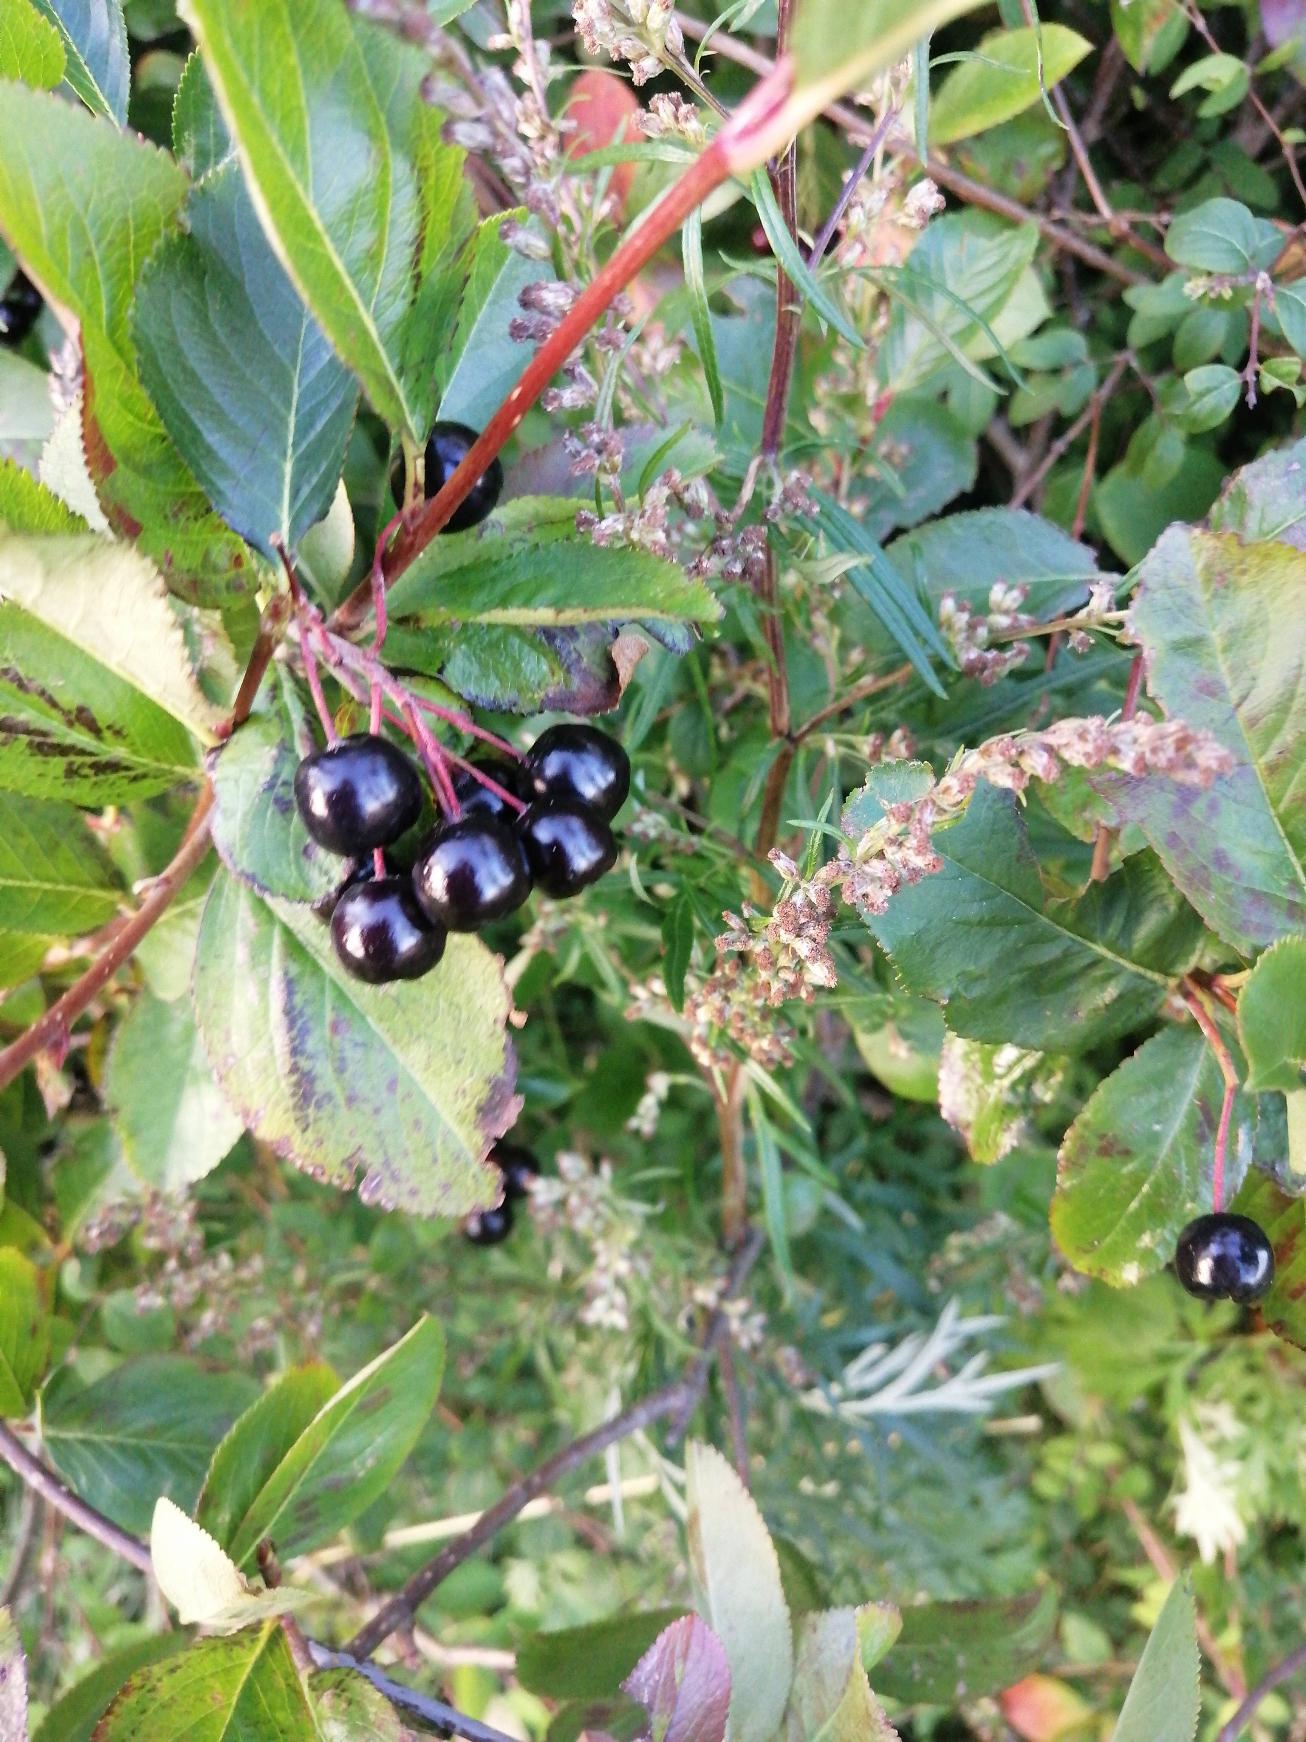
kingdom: Plantae
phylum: Tracheophyta
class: Magnoliopsida
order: Rosales
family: Rosaceae
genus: Aronia
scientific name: Aronia melanocarpa
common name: Sortfrugtet surbær
